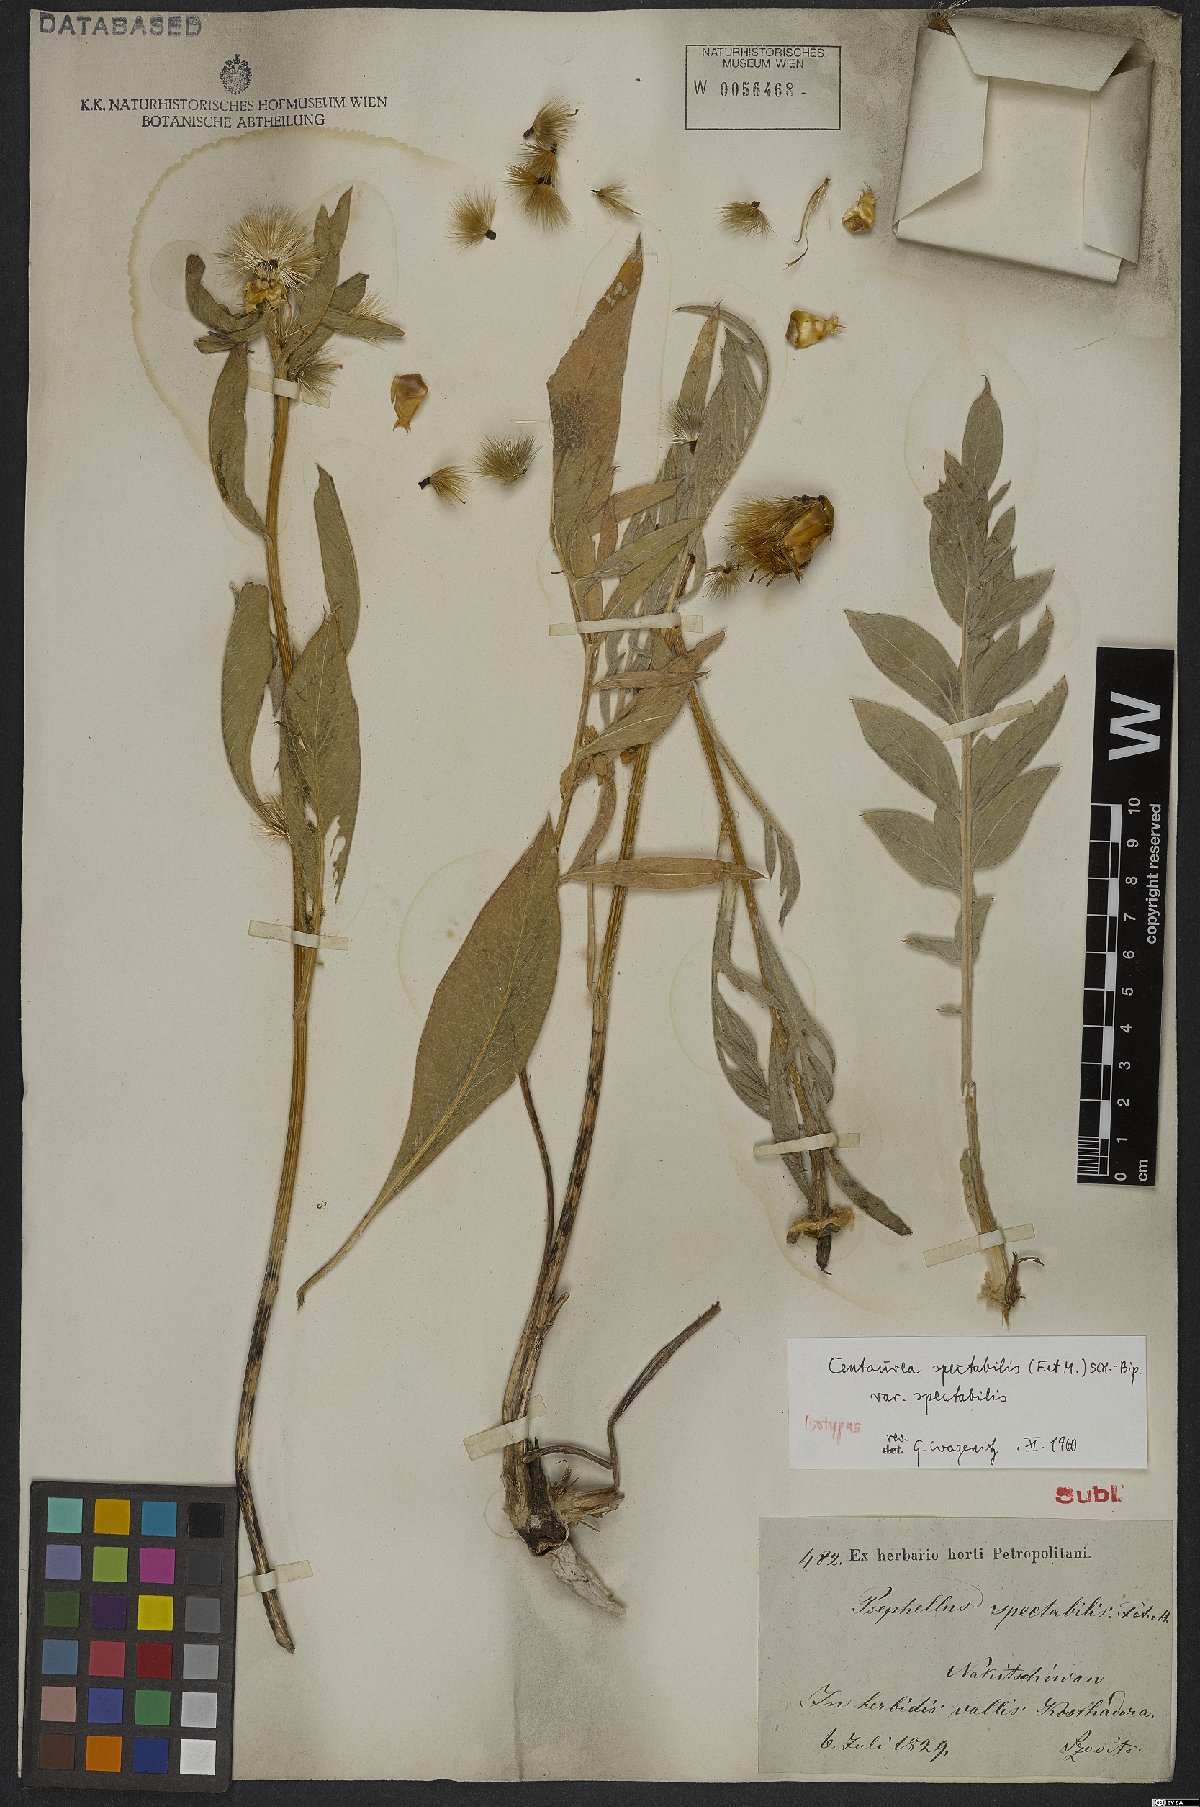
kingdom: Plantae
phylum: Tracheophyta
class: Magnoliopsida
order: Asterales
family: Asteraceae
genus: Centaurea
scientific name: Centaurea spectabilis
